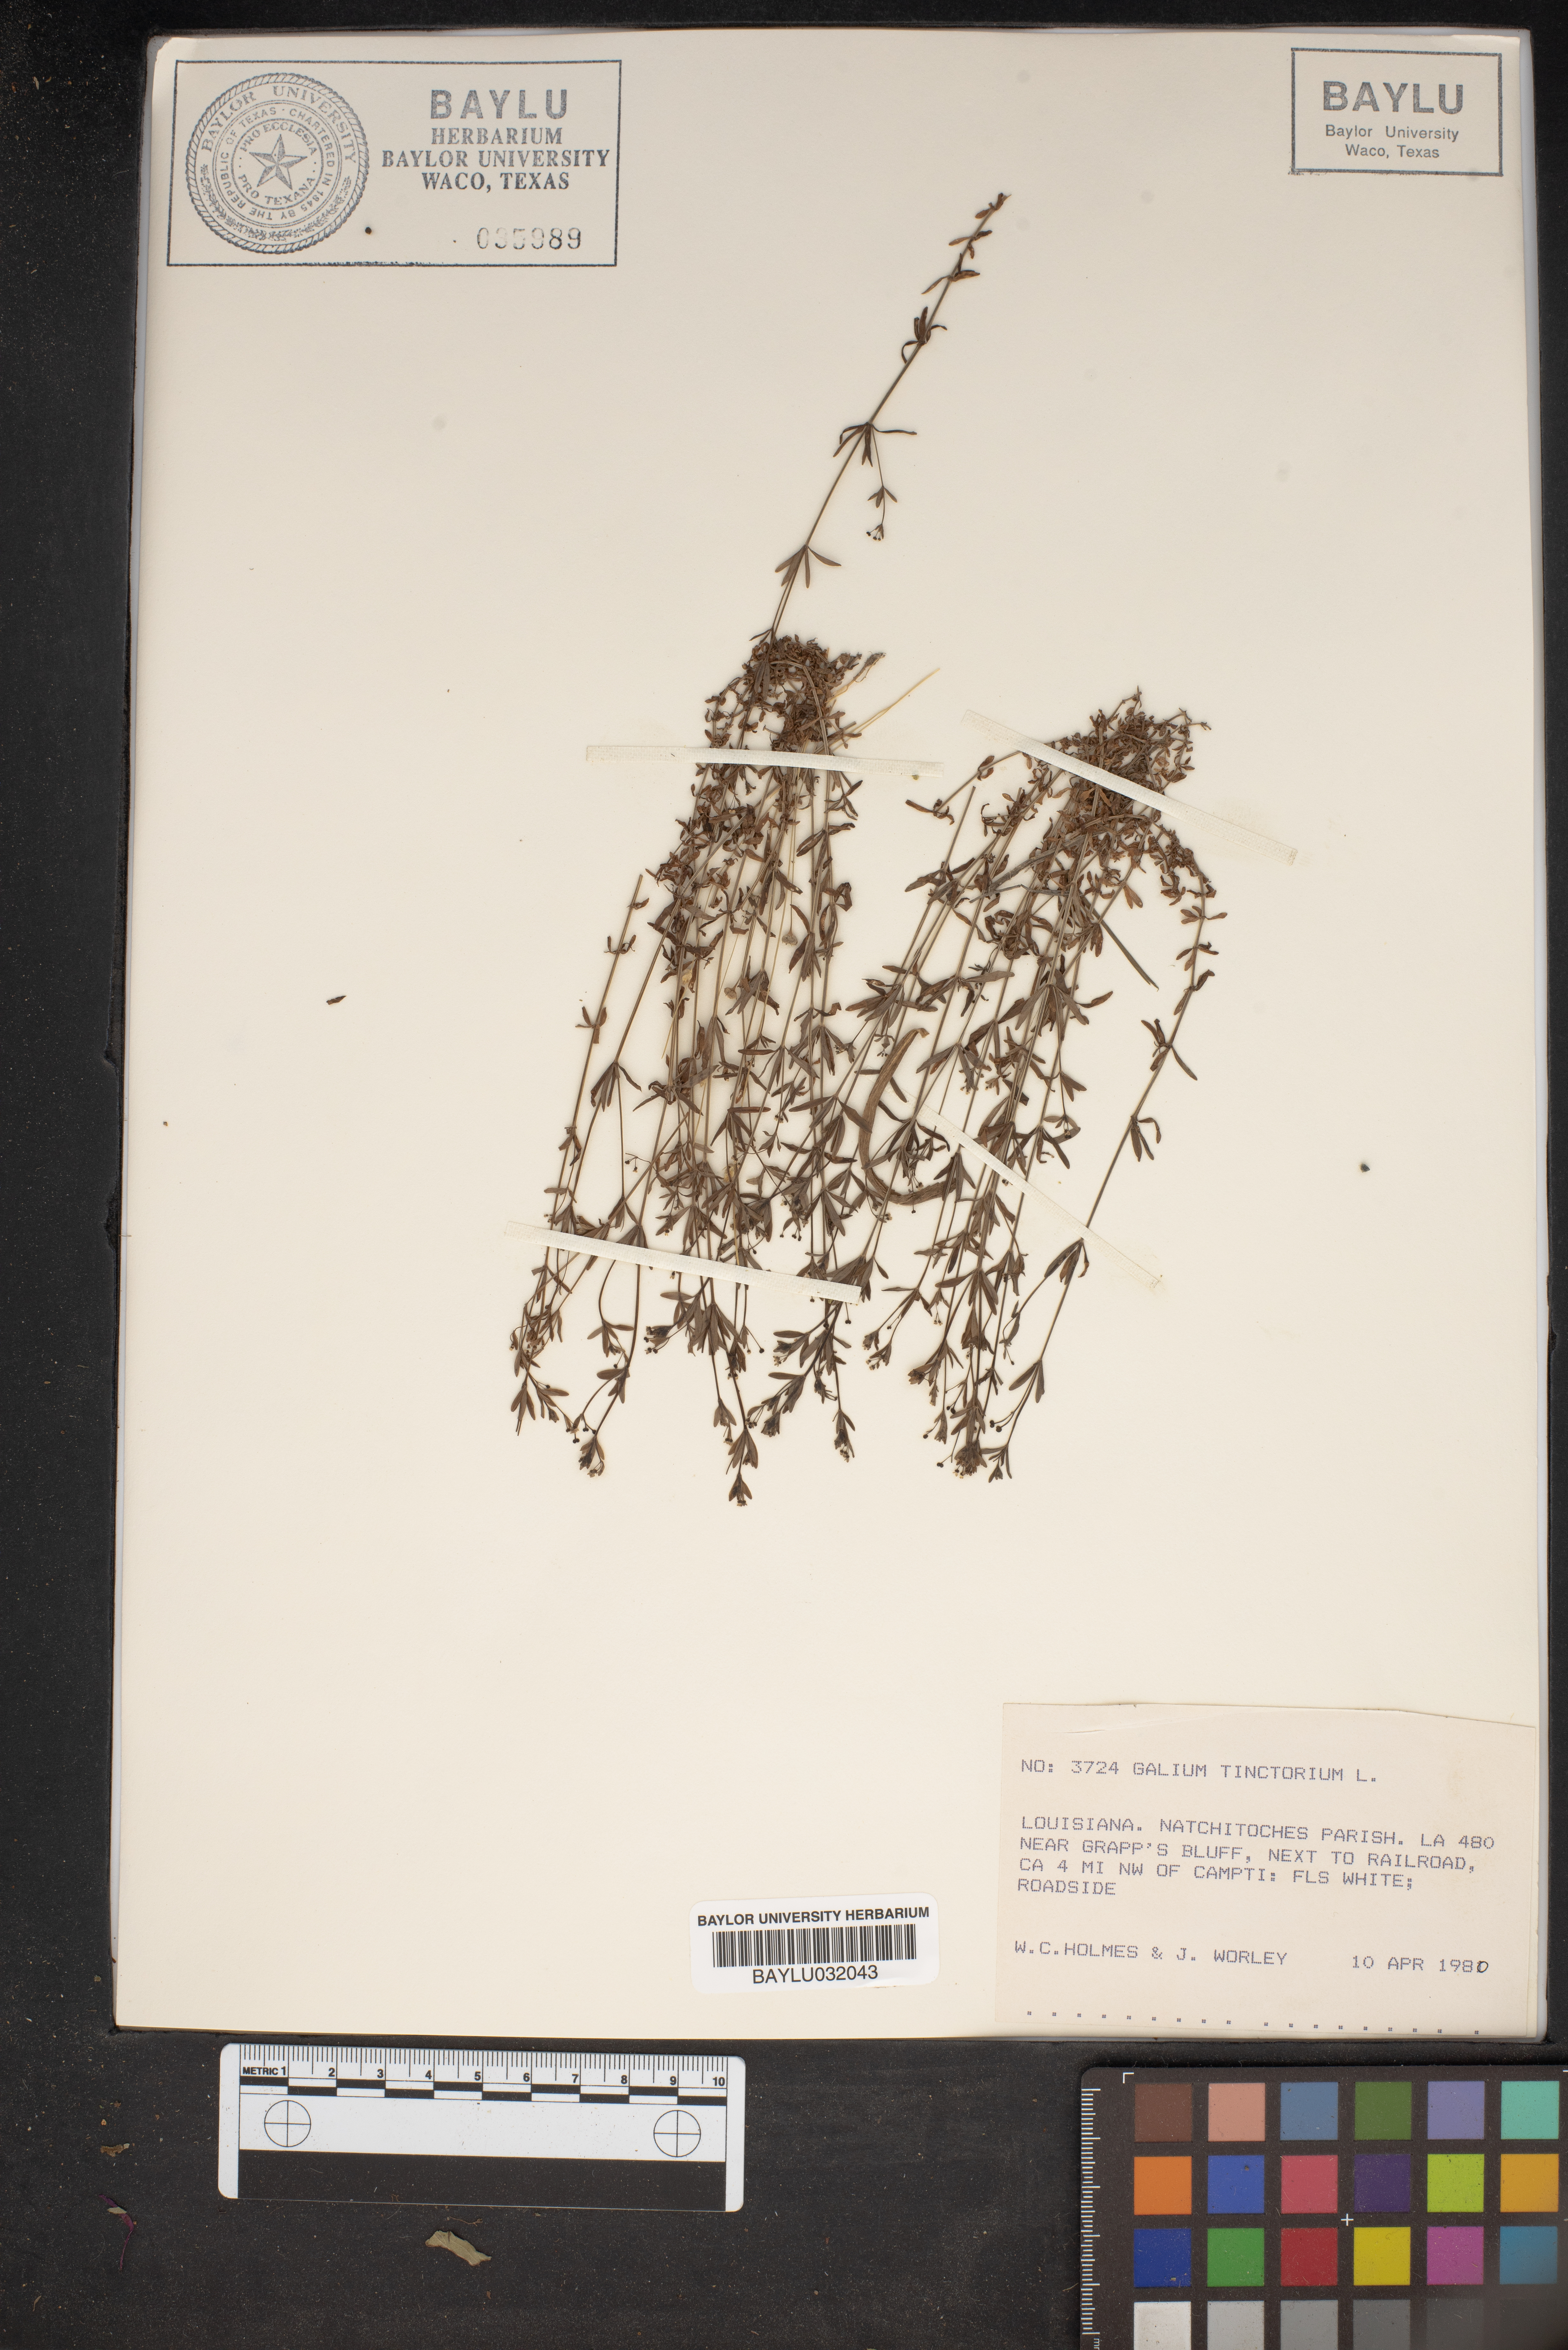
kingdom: Plantae
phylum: Tracheophyta
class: Magnoliopsida
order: Gentianales
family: Rubiaceae
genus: Asperula
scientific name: Asperula tinctoria
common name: Dyer's woodruff
